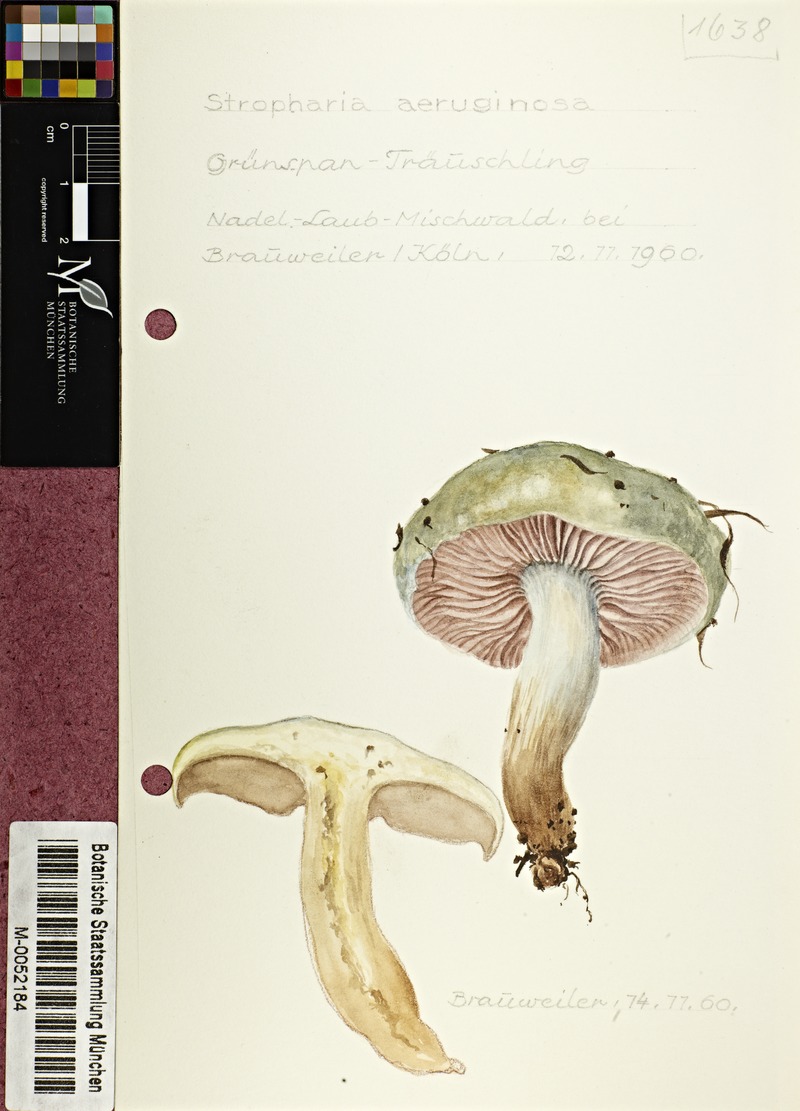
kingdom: Fungi
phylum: Basidiomycota
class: Agaricomycetes
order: Agaricales
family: Strophariaceae
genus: Stropharia
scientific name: Stropharia aeruginosa
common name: Verdigris roundhead
